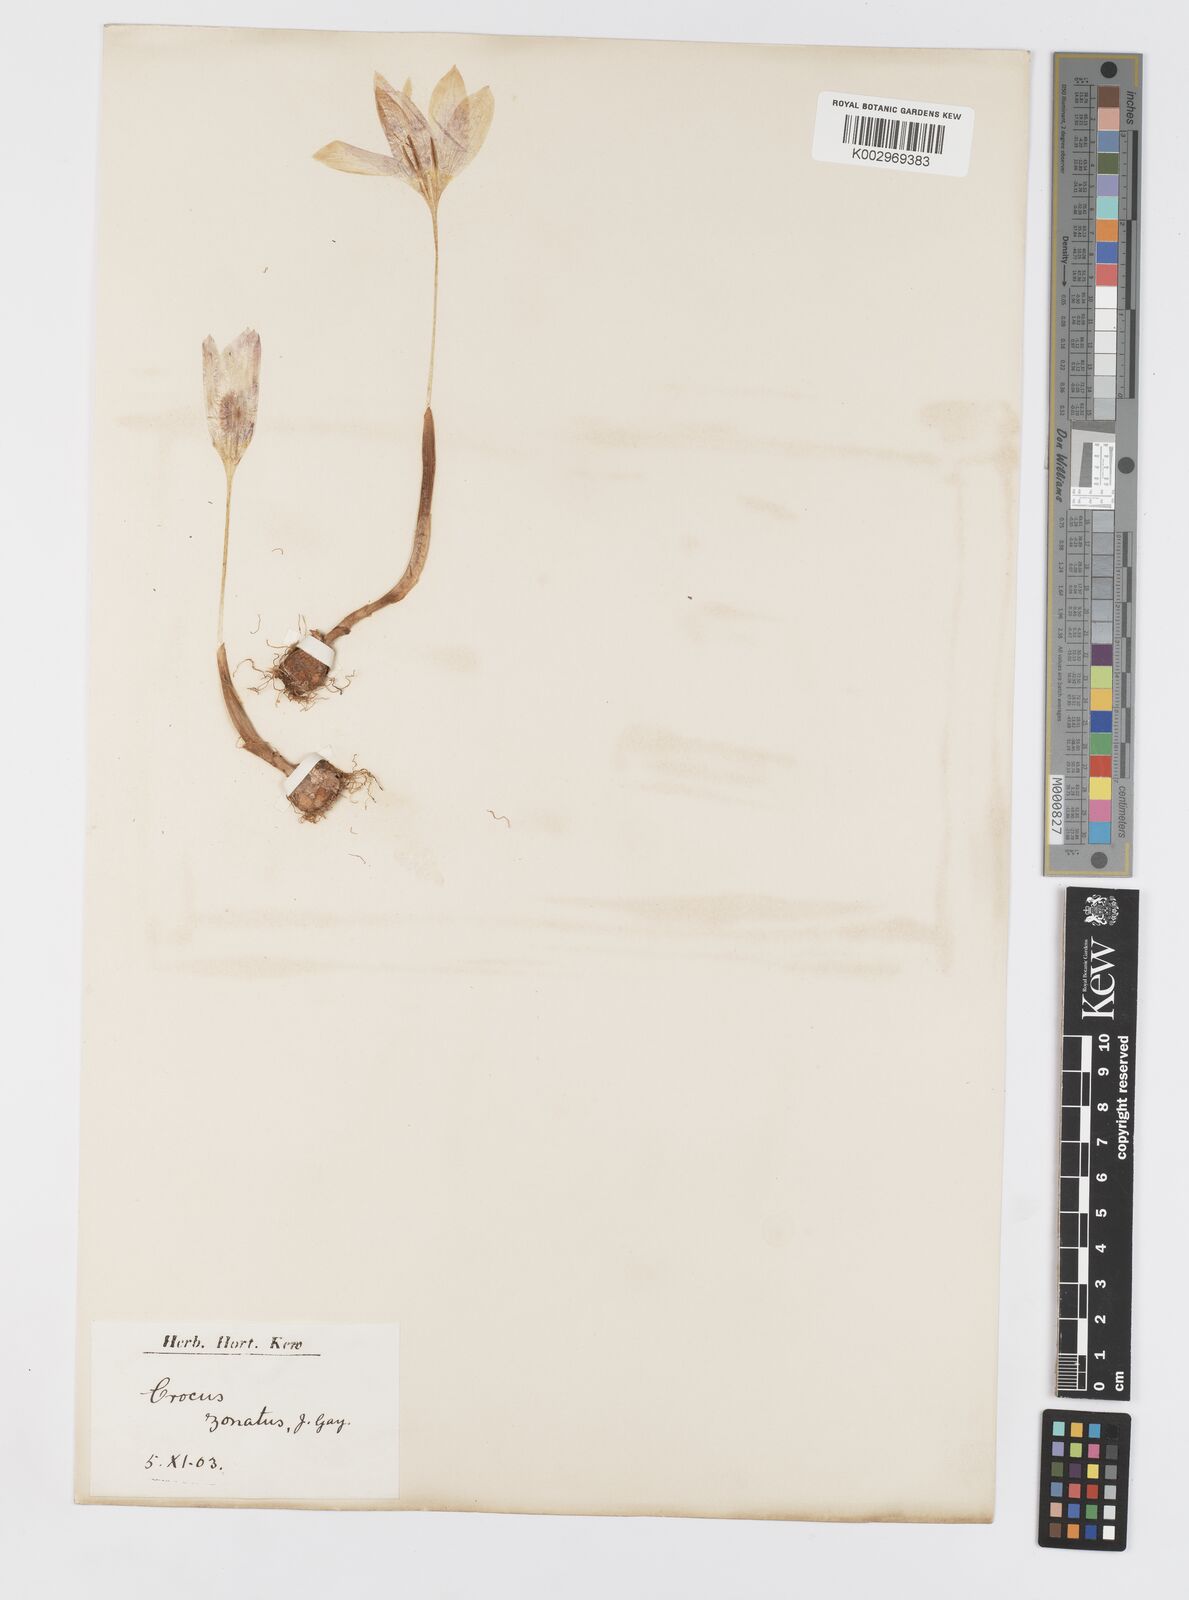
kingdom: Plantae
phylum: Tracheophyta
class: Liliopsida
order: Asparagales
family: Iridaceae
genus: Crocus
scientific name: Crocus kotschyanus
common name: Kotschy's crocus
